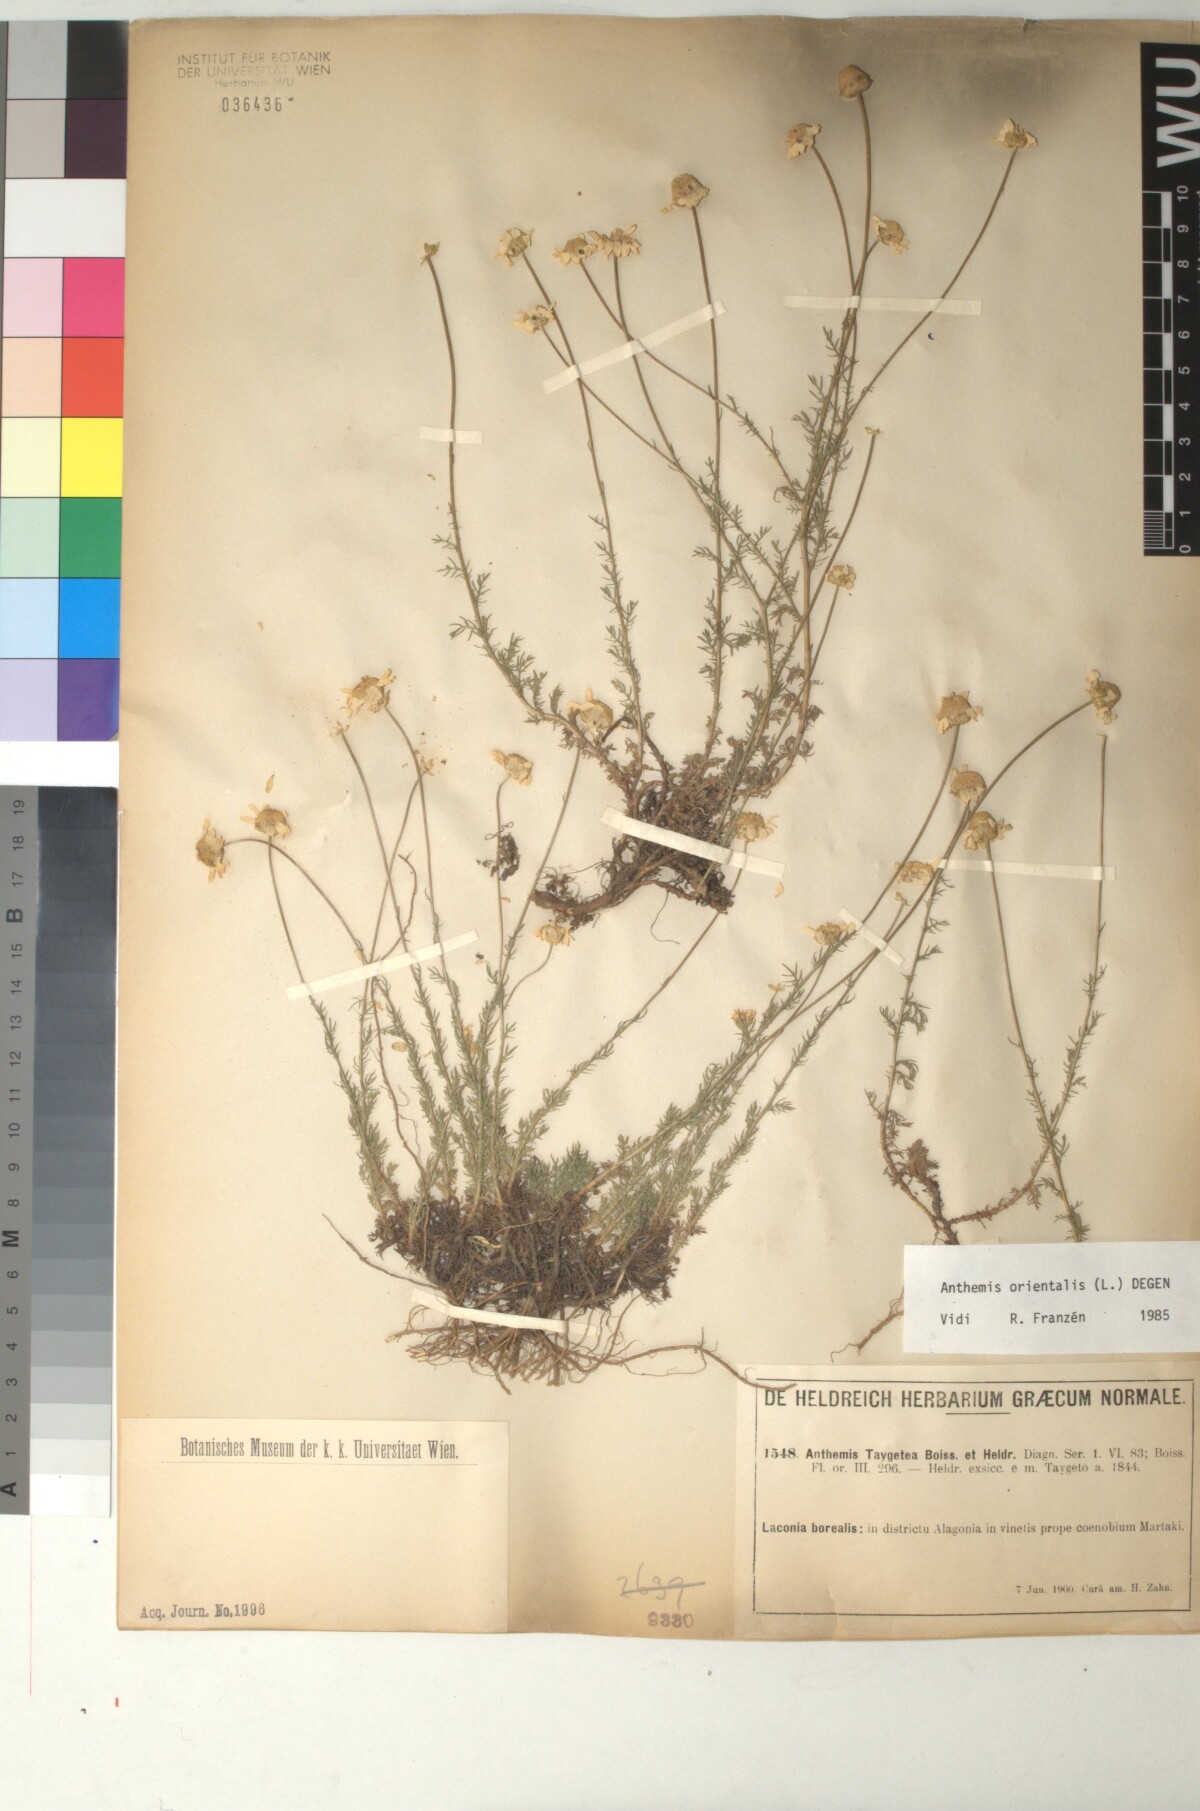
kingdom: Plantae
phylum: Tracheophyta
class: Magnoliopsida
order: Asterales
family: Asteraceae
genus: Anthemis
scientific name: Anthemis orientalis
